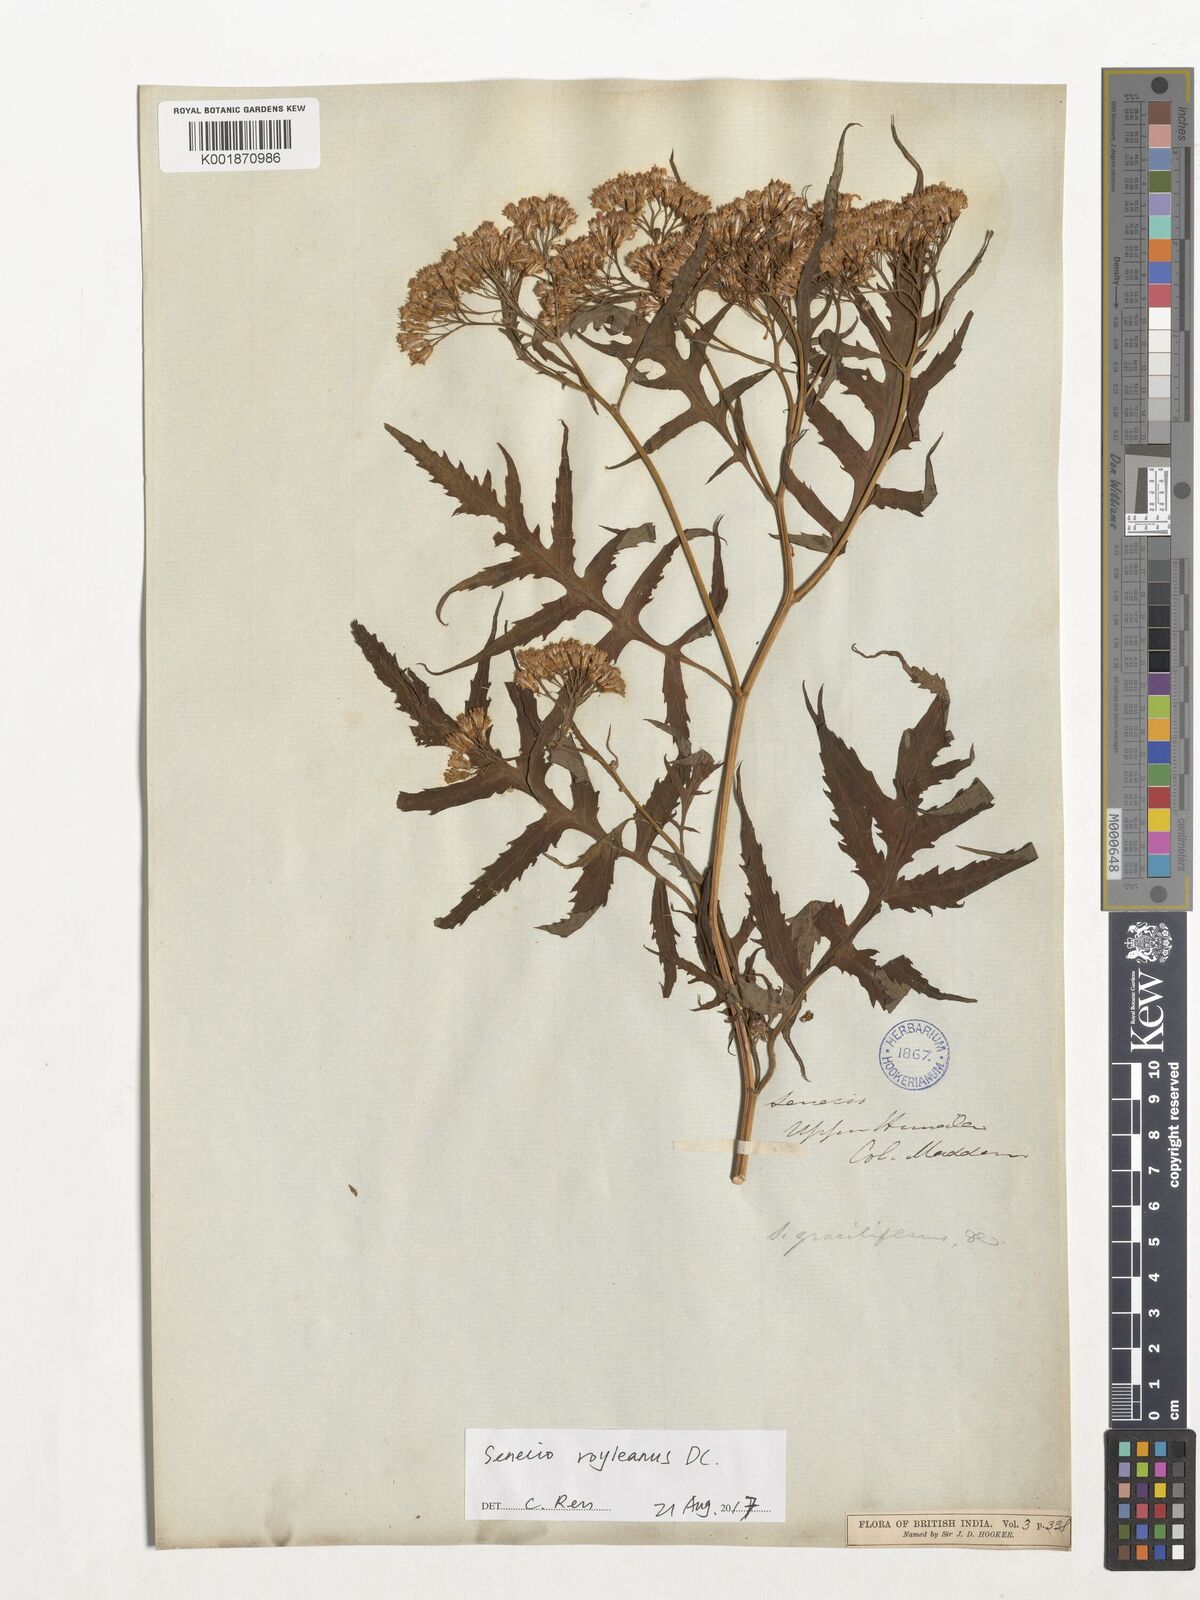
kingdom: Plantae
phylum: Tracheophyta
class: Magnoliopsida
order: Asterales
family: Asteraceae
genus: Senecio
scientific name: Senecio royleanus
